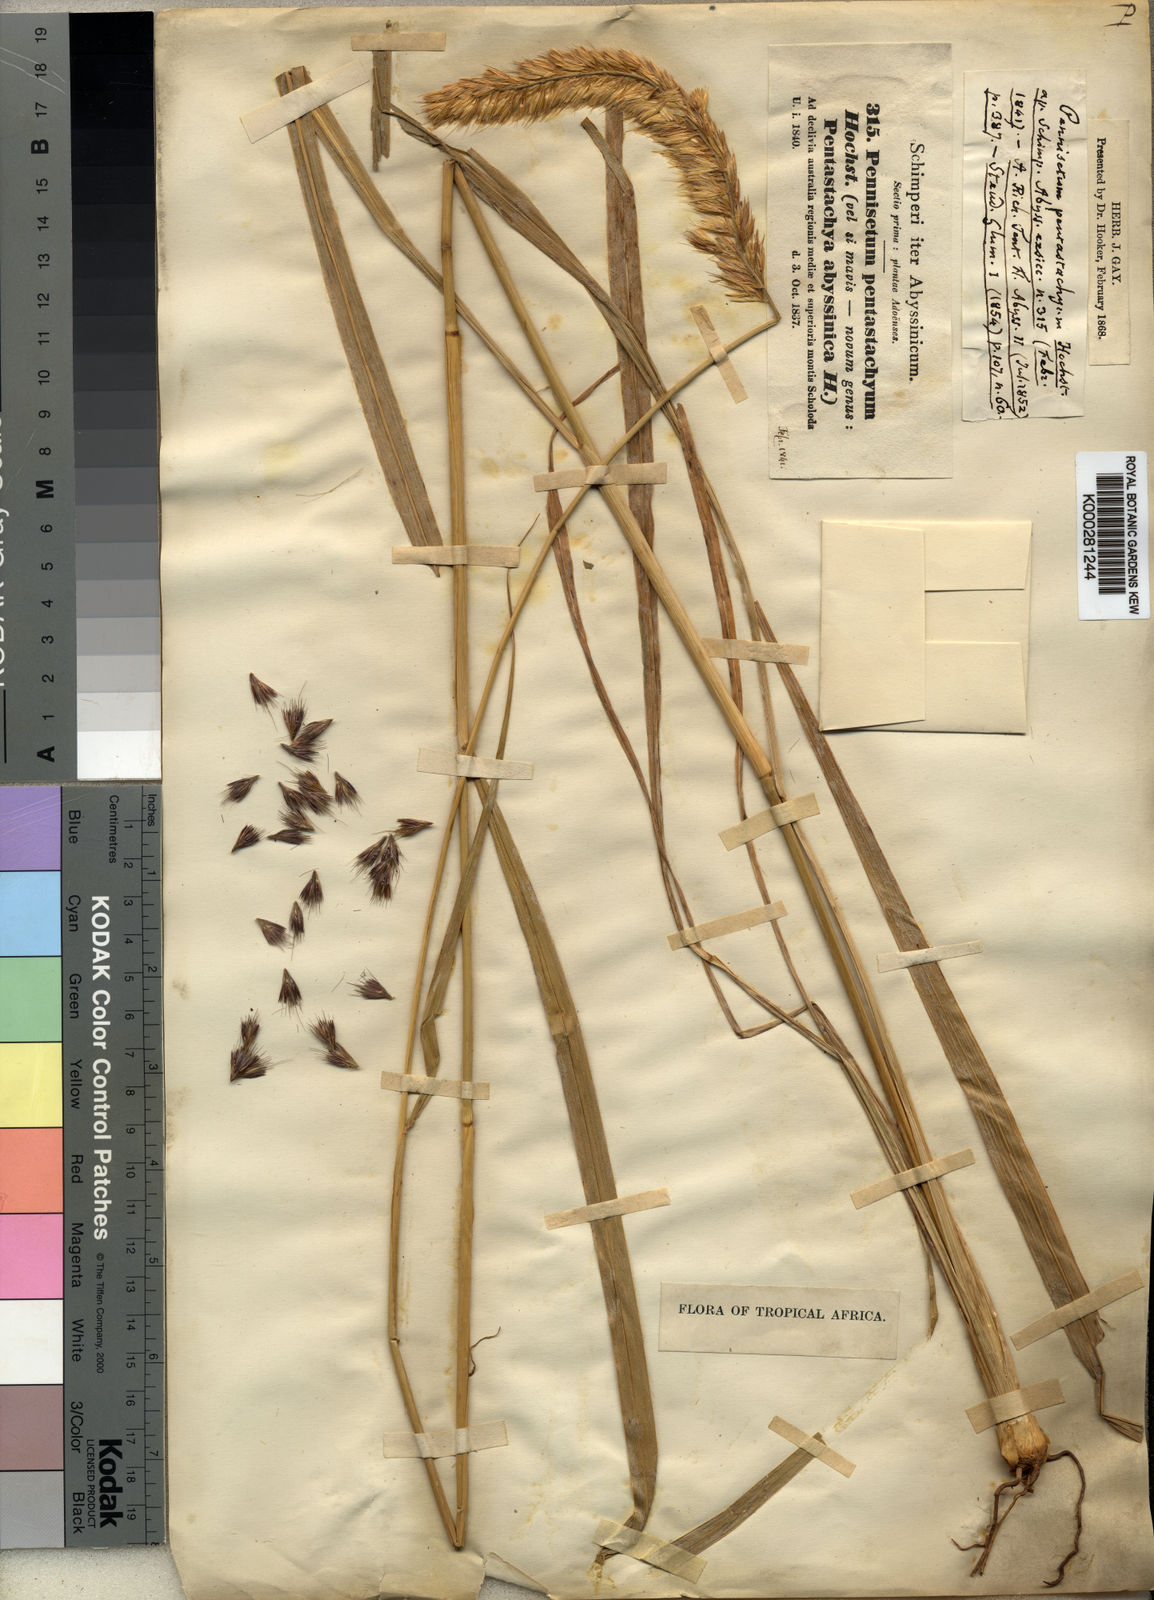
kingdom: Plantae
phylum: Tracheophyta
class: Liliopsida
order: Poales
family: Poaceae
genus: Cenchrus
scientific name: Cenchrus squamulatus
